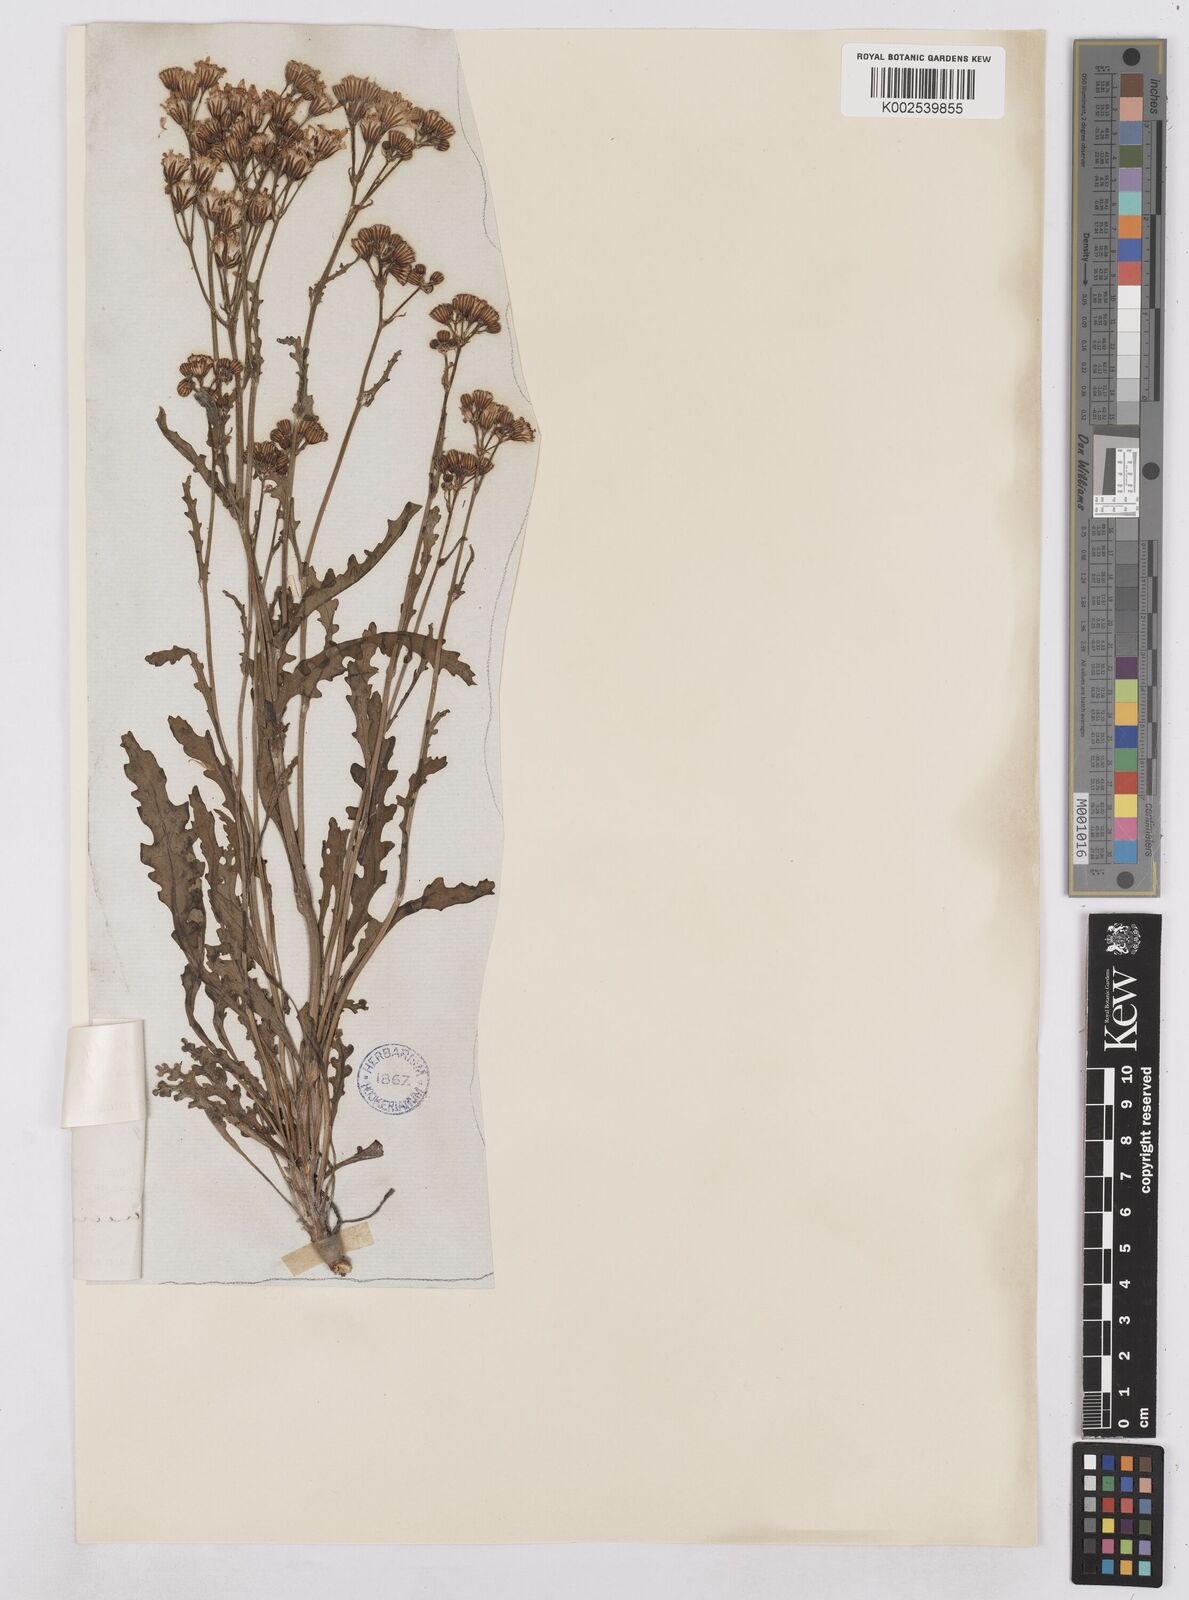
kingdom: Plantae
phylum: Tracheophyta
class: Magnoliopsida
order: Asterales
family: Asteraceae
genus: Packera
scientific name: Packera fendleri
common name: Notch-leaf butterweed
